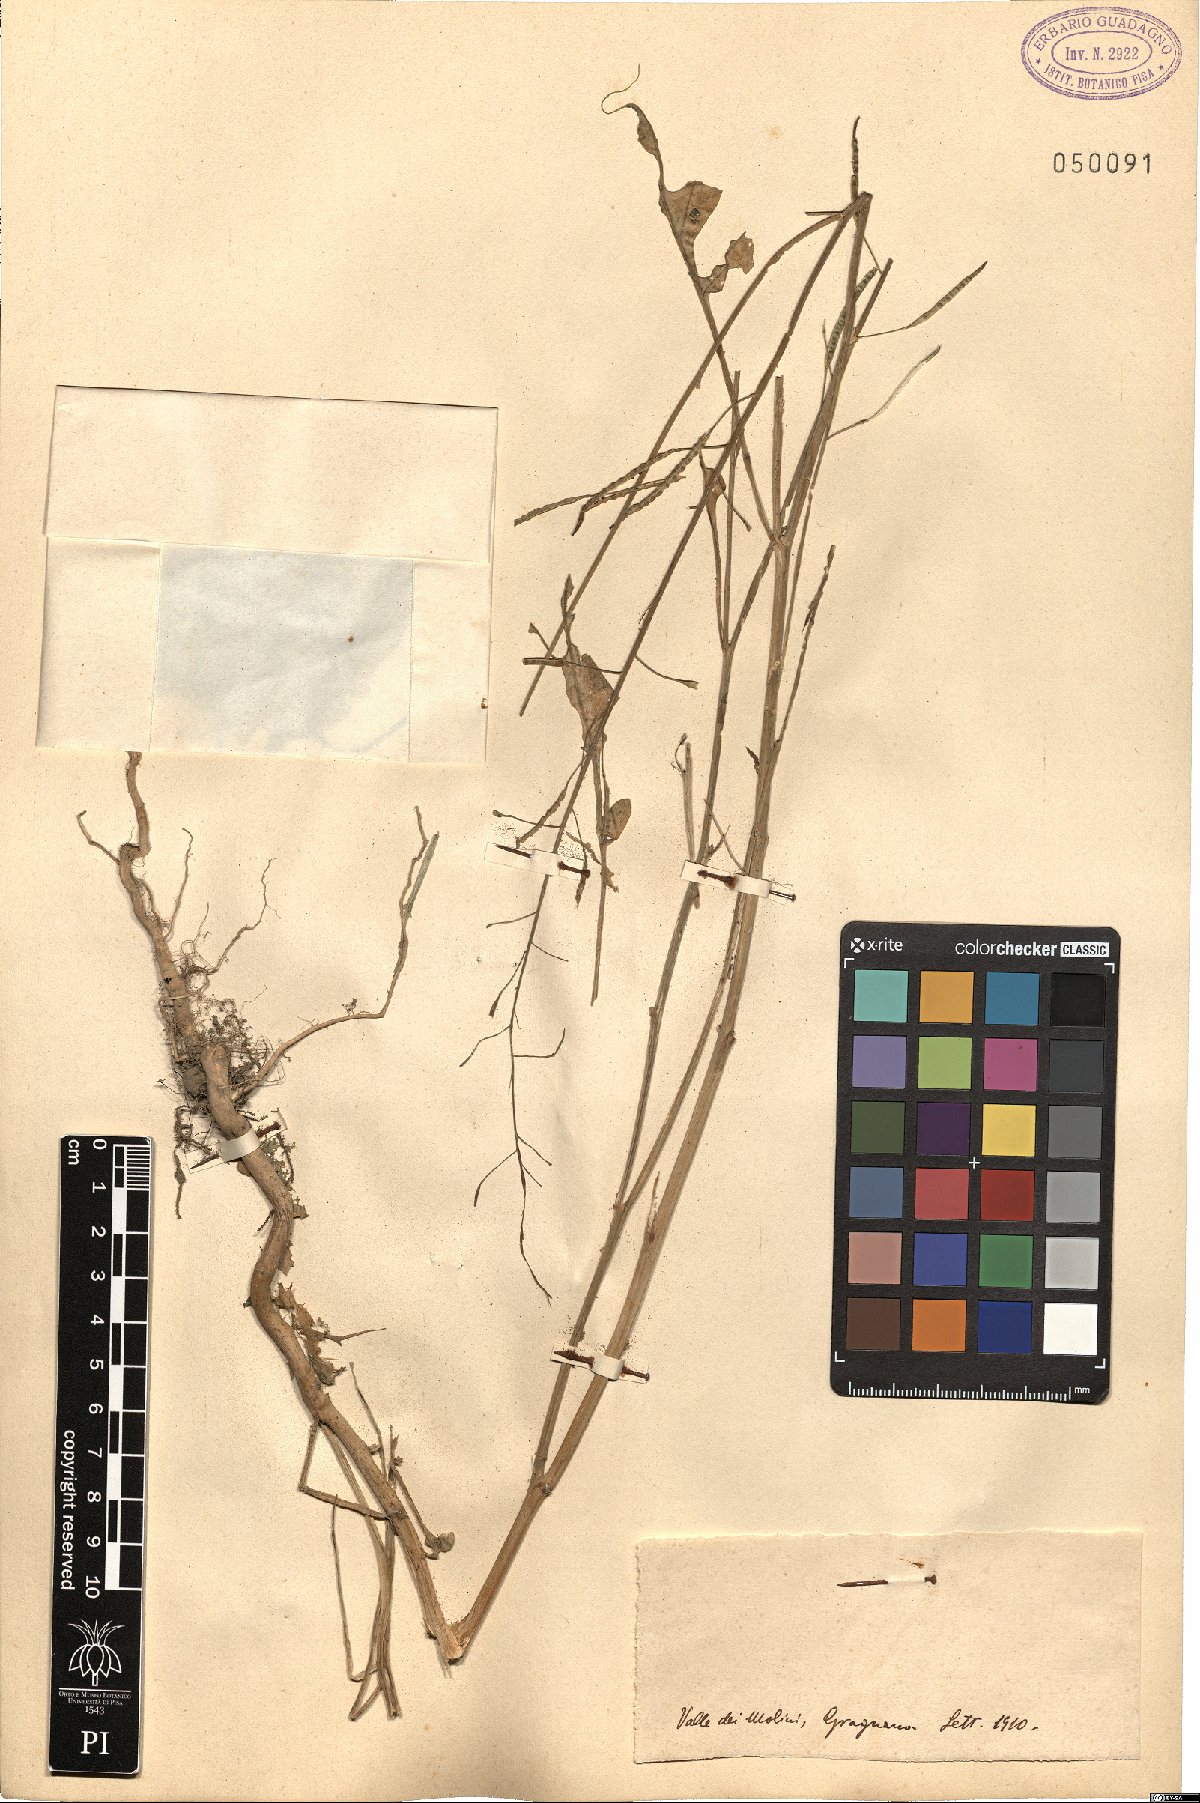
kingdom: Plantae
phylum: Tracheophyta
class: Magnoliopsida
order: Brassicales
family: Brassicaceae
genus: Brassica
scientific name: Brassica
